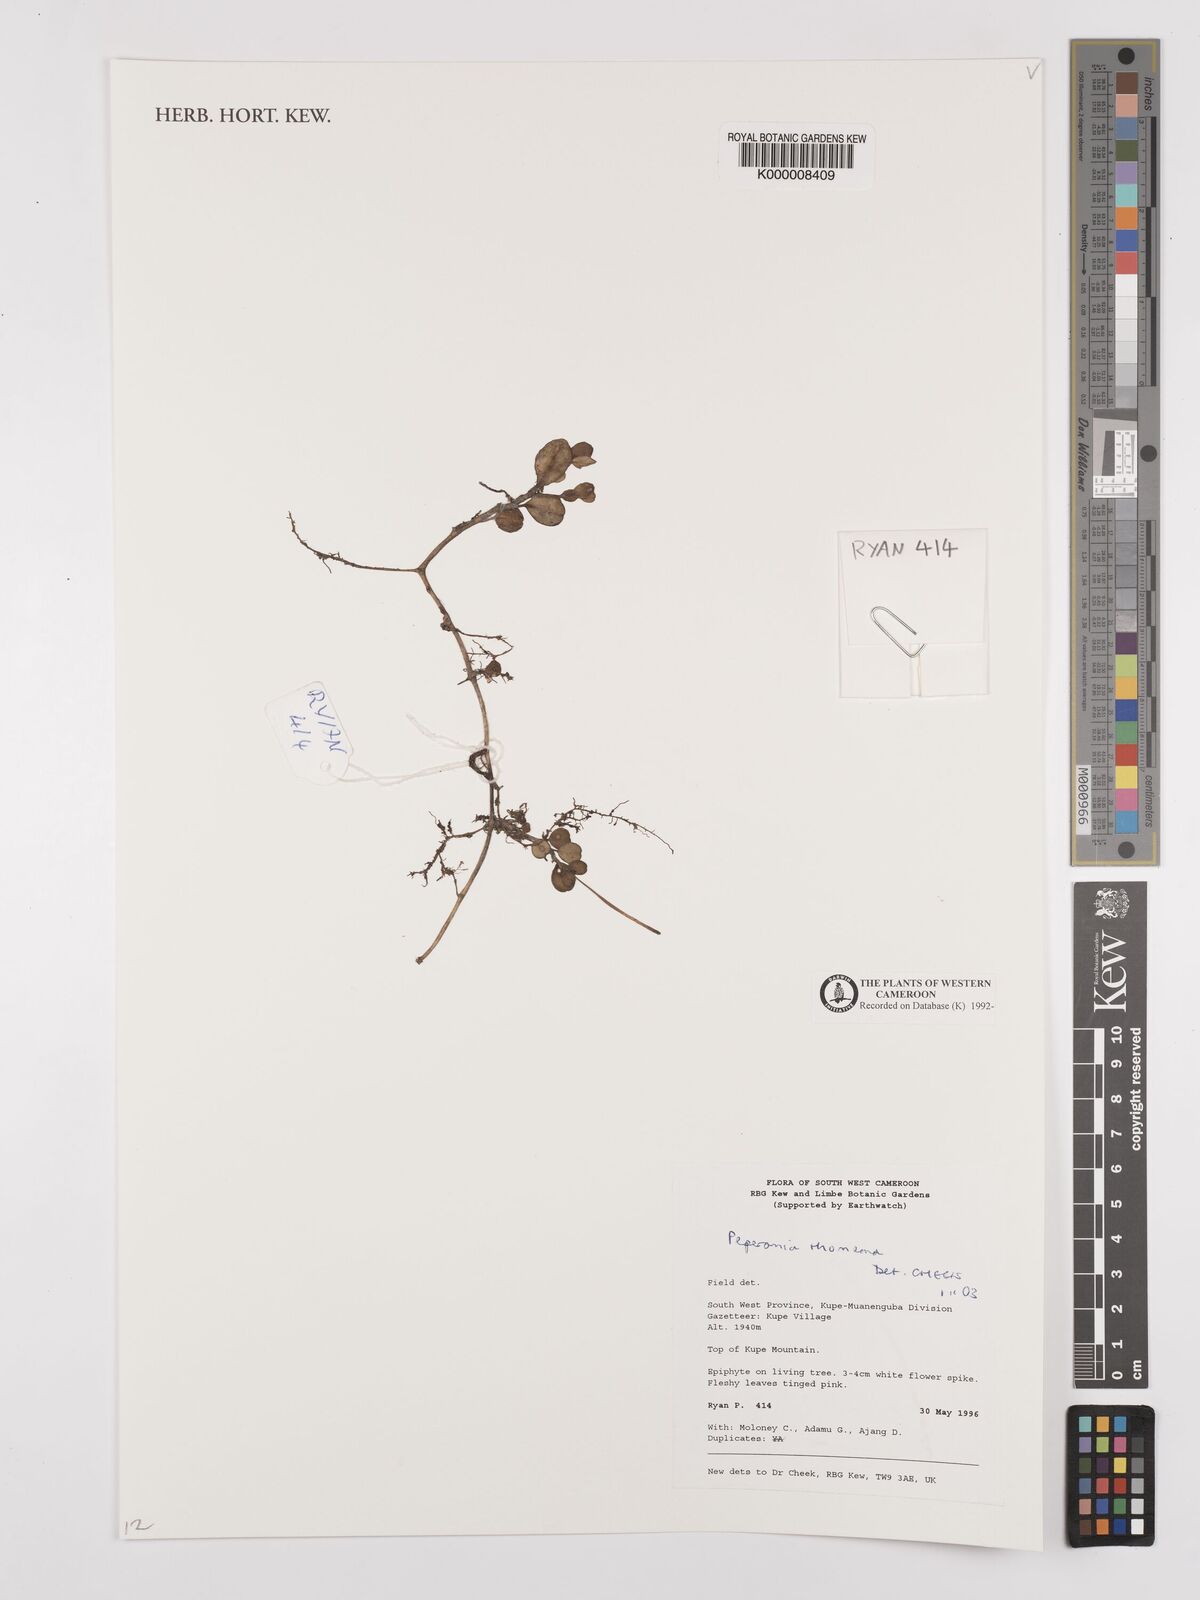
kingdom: Plantae
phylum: Tracheophyta
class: Magnoliopsida
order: Piperales
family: Piperaceae
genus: Peperomia
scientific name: Peperomia thomeana
